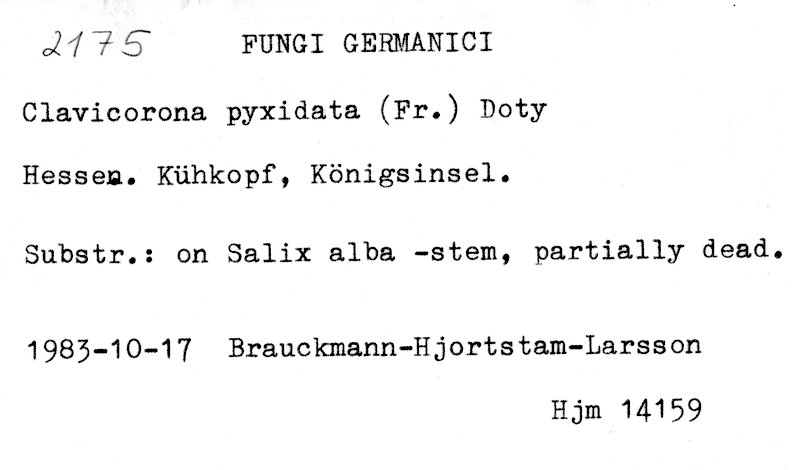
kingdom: Plantae
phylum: Tracheophyta
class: Magnoliopsida
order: Malpighiales
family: Salicaceae
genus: Salix
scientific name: Salix alba
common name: White willow
